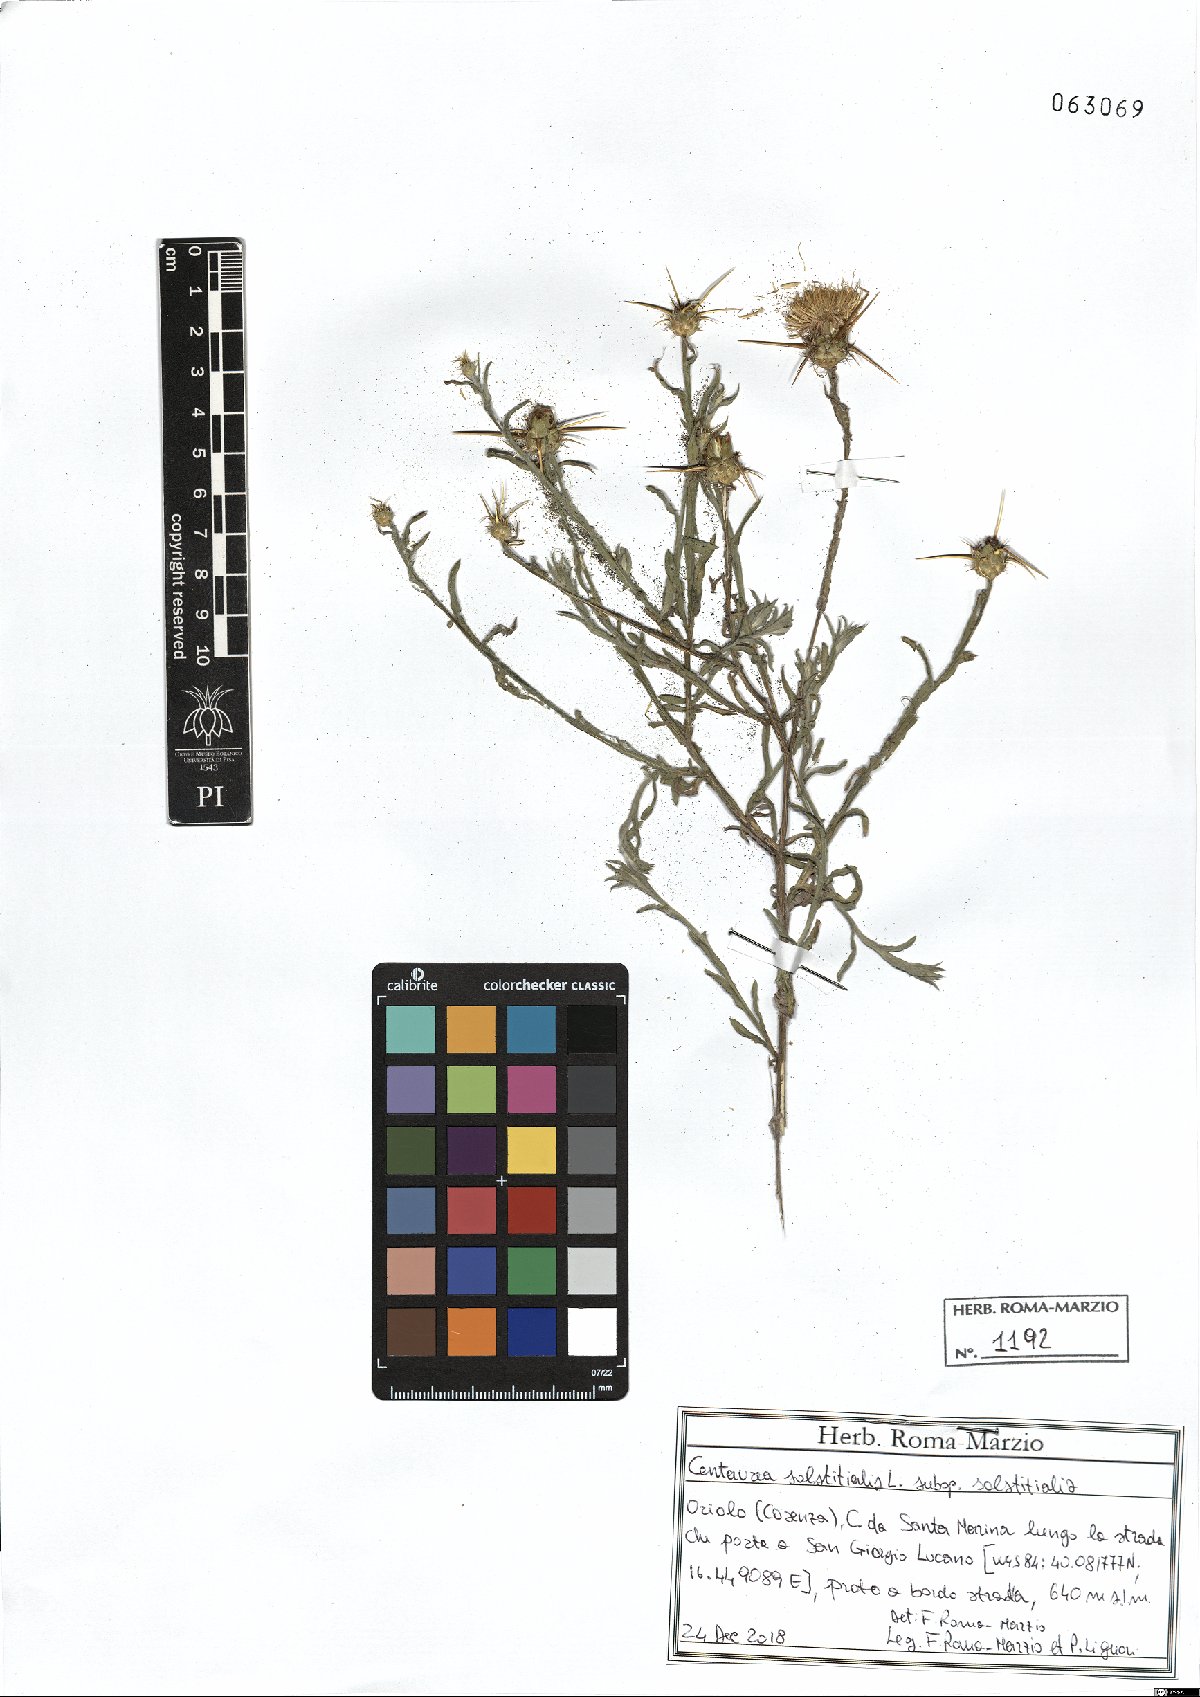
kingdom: Plantae
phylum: Tracheophyta
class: Magnoliopsida
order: Asterales
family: Asteraceae
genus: Centaurea
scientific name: Centaurea solstitialis
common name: Yellow star-thistle
